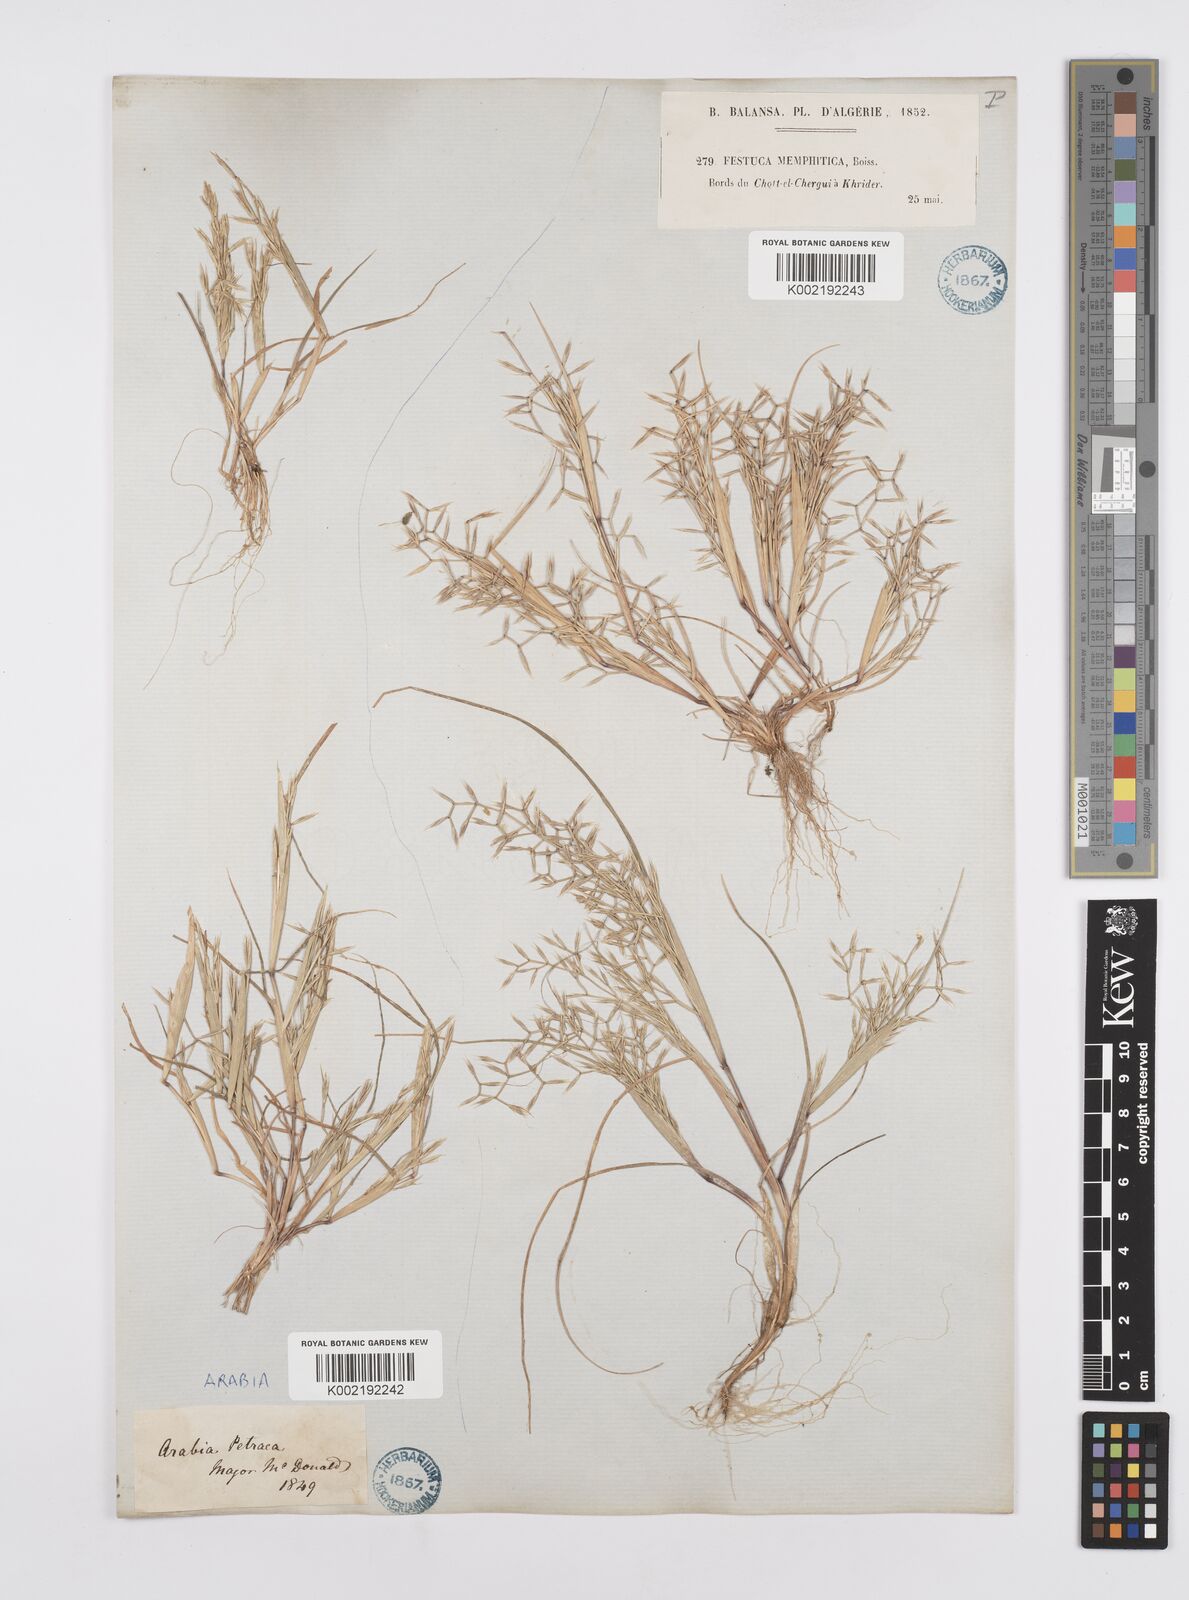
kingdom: Plantae
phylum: Tracheophyta
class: Liliopsida
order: Poales
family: Poaceae
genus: Cutandia
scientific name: Cutandia memphitica
